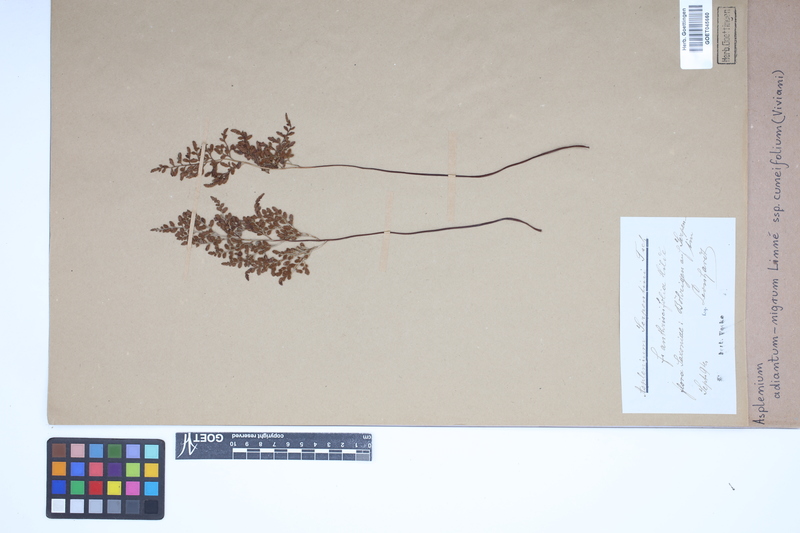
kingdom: Plantae
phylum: Tracheophyta
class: Polypodiopsida
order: Polypodiales
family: Aspleniaceae
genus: Asplenium
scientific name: Asplenium cuneifolium
